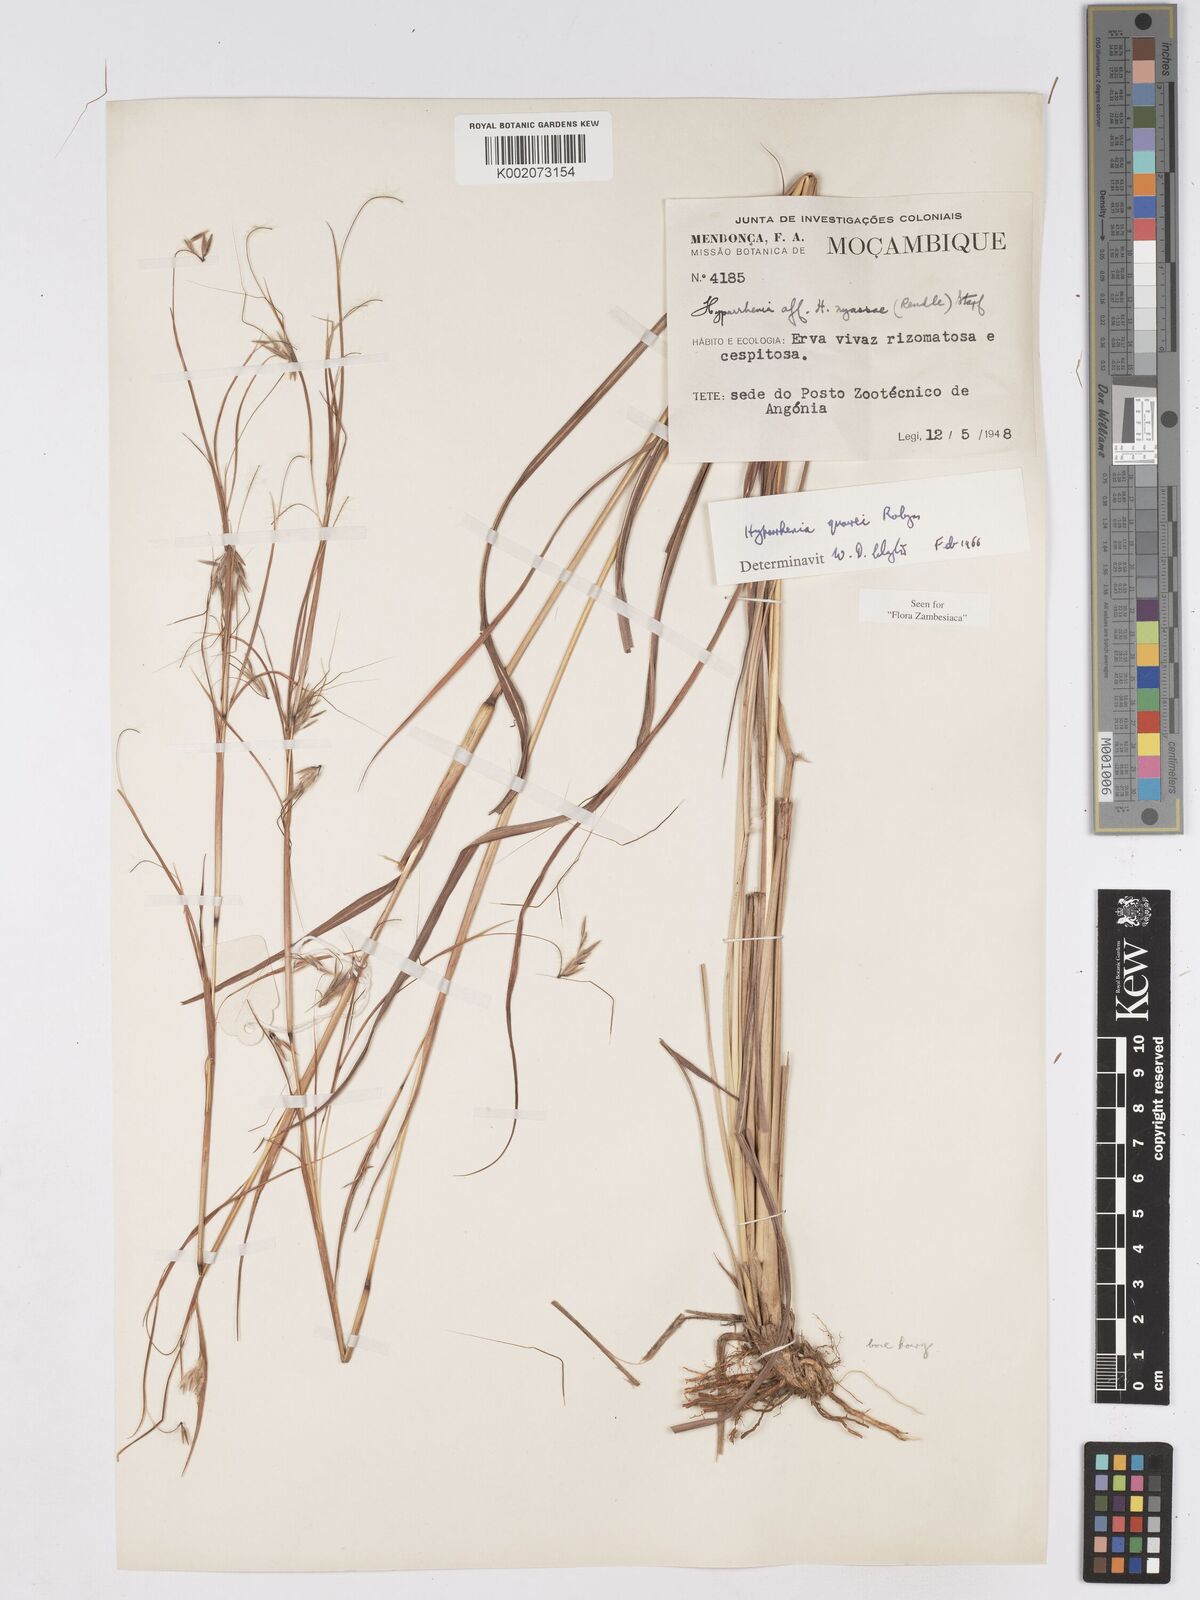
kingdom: Plantae
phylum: Tracheophyta
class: Liliopsida
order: Poales
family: Poaceae
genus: Hyparrhenia
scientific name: Hyparrhenia quarrei
